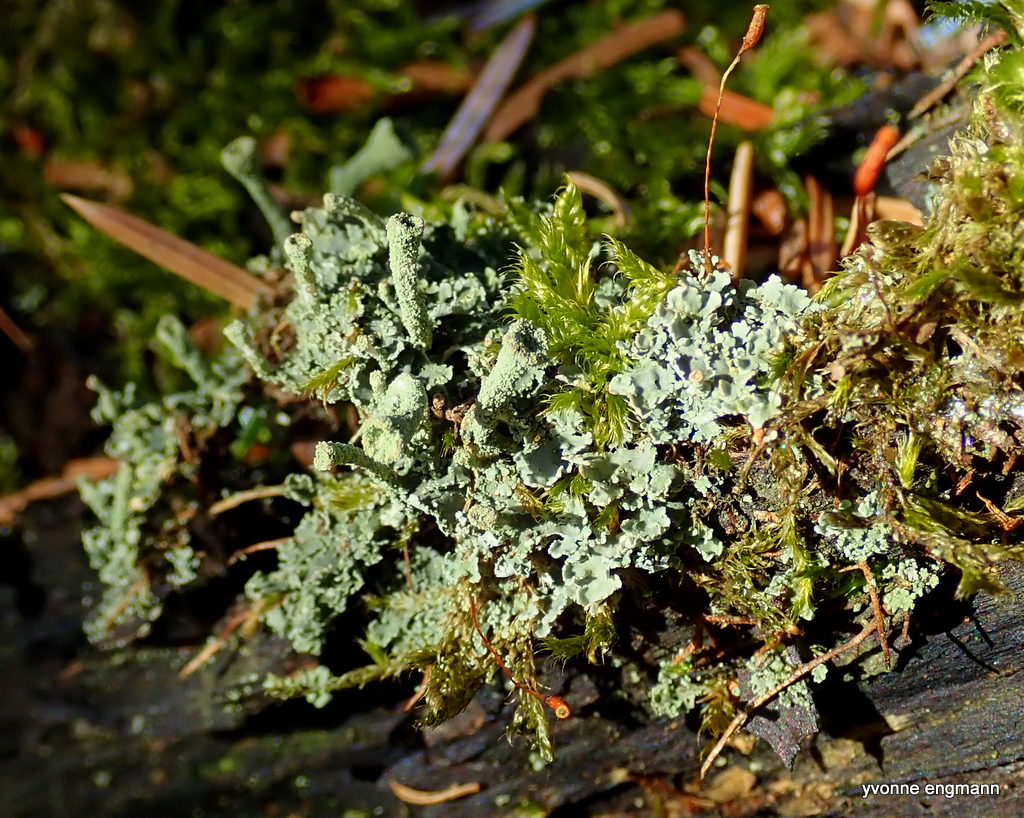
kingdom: Fungi
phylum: Ascomycota
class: Lecanoromycetes
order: Lecanorales
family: Cladoniaceae
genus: Cladonia
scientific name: Cladonia
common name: brungrøn bægerlav
